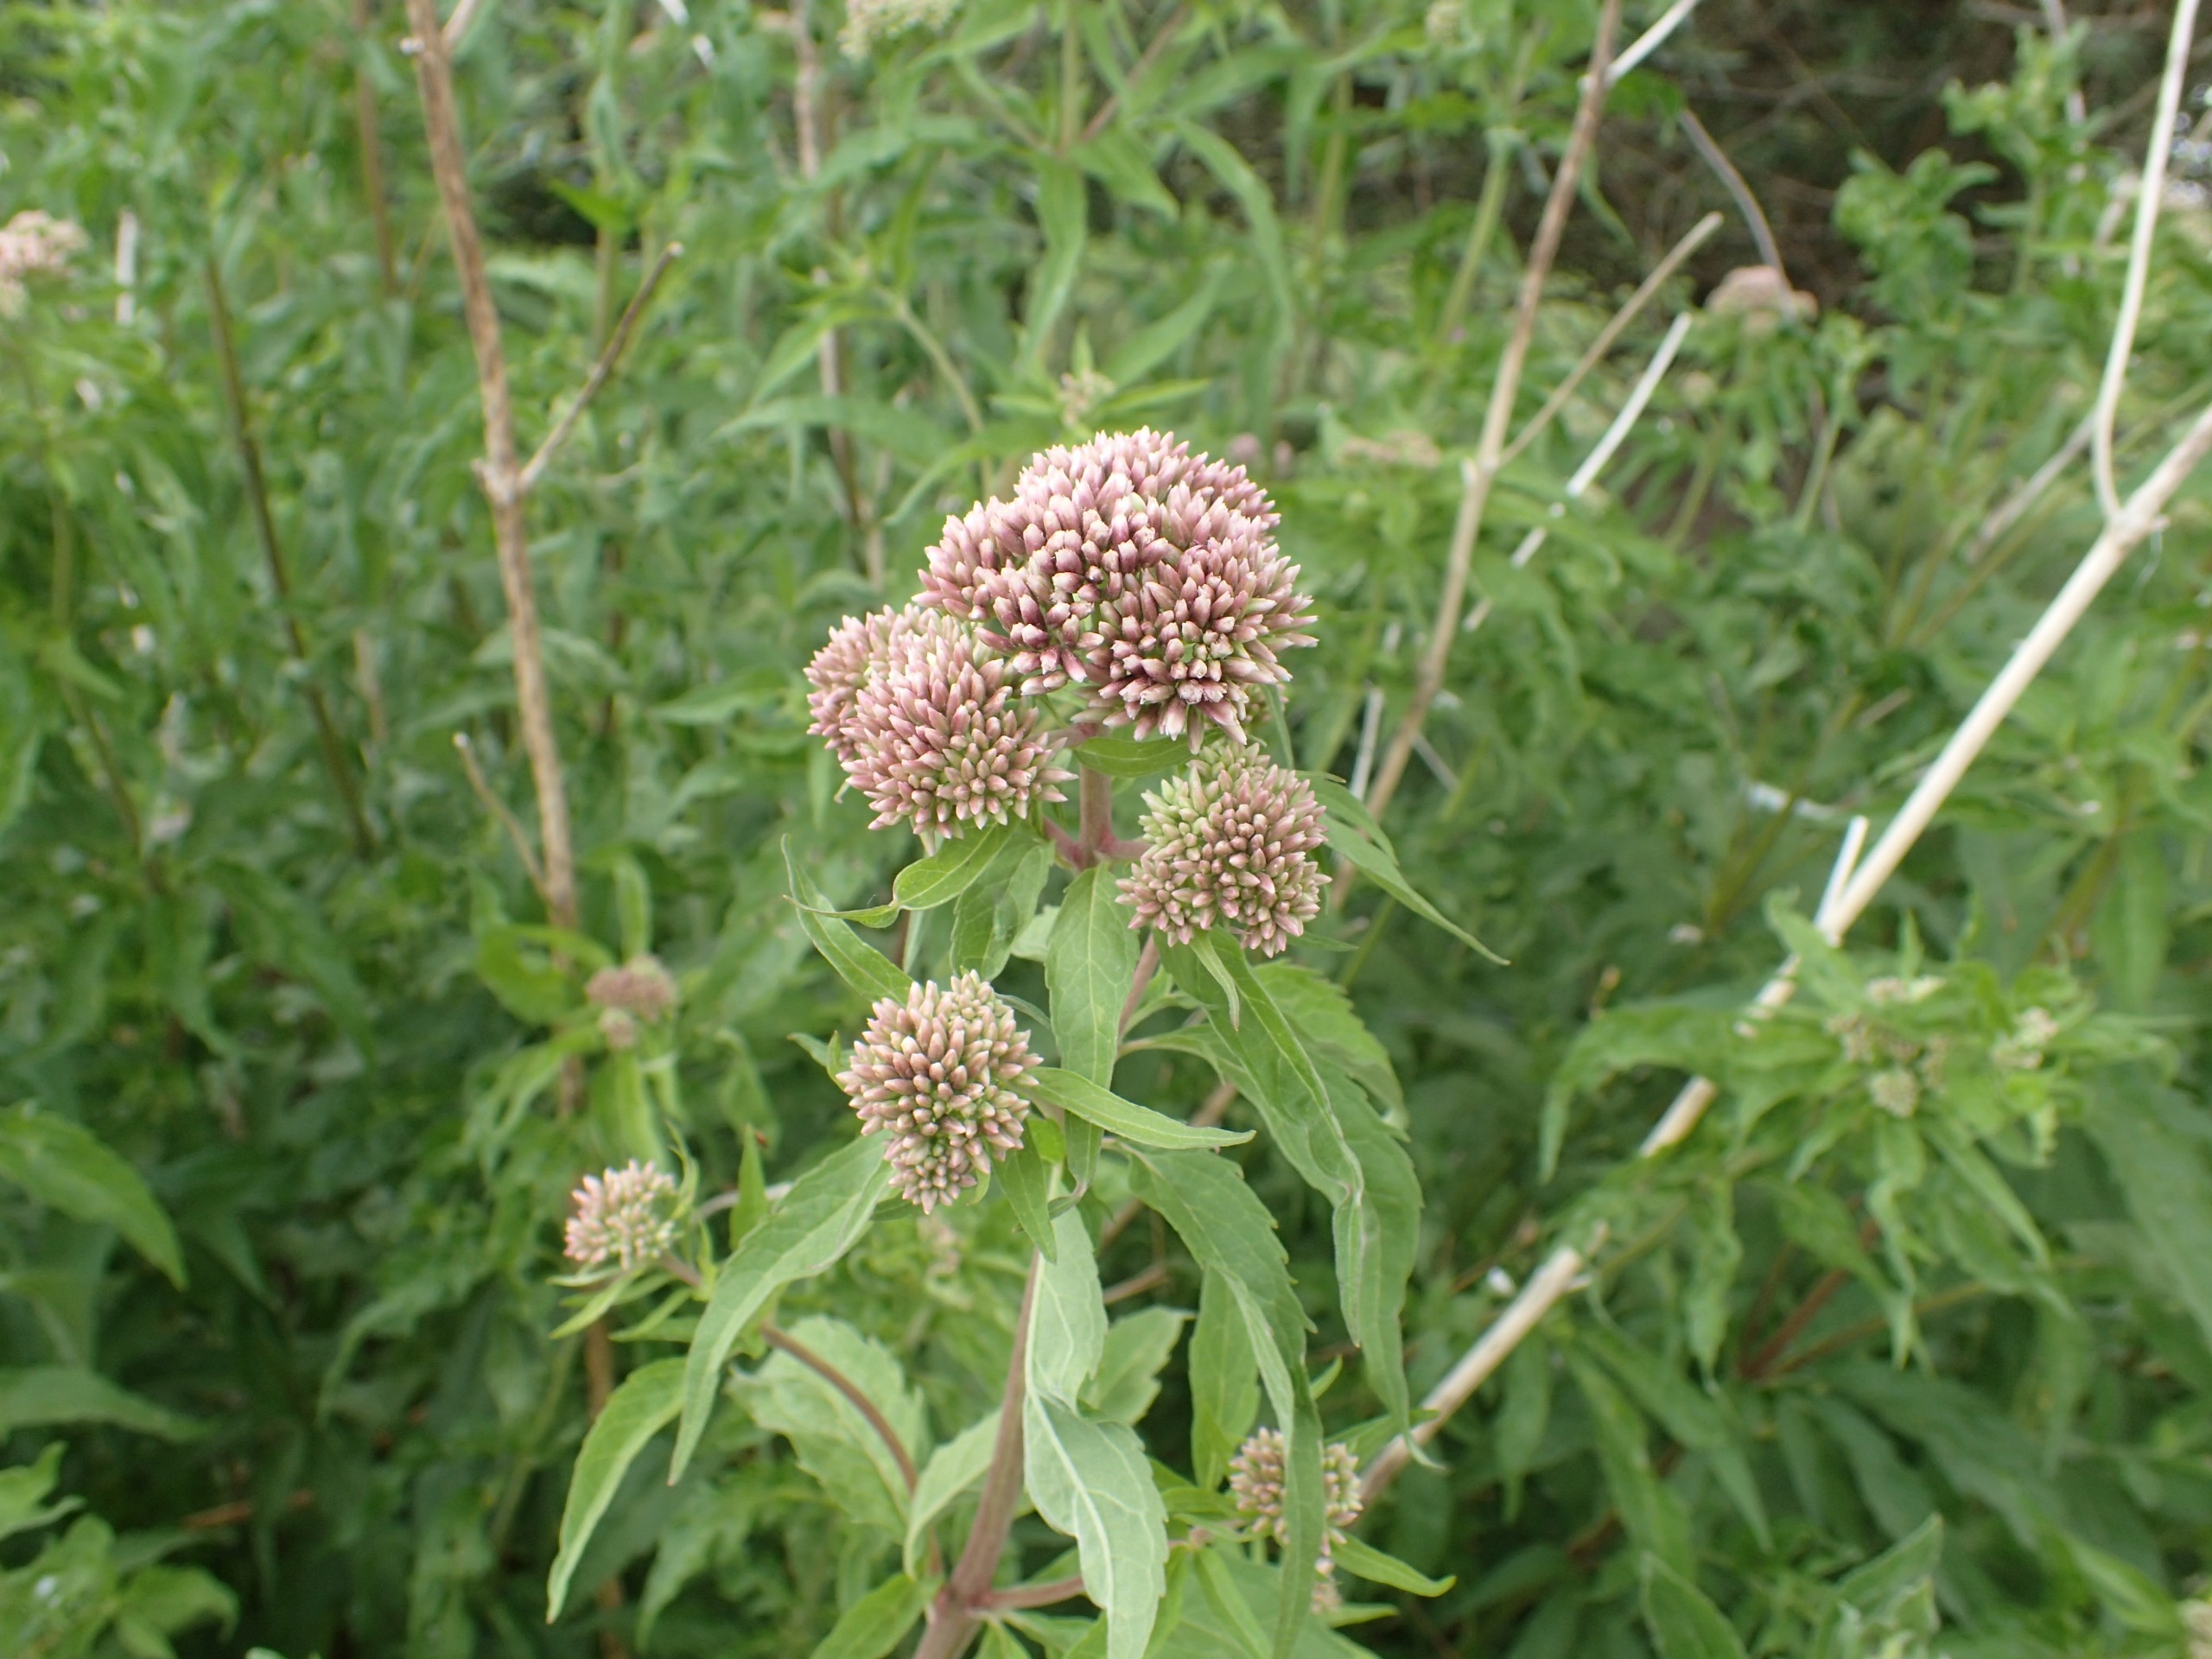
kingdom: Plantae
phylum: Tracheophyta
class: Magnoliopsida
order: Asterales
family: Asteraceae
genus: Eupatorium
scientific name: Eupatorium cannabinum
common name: Hjortetrøst
